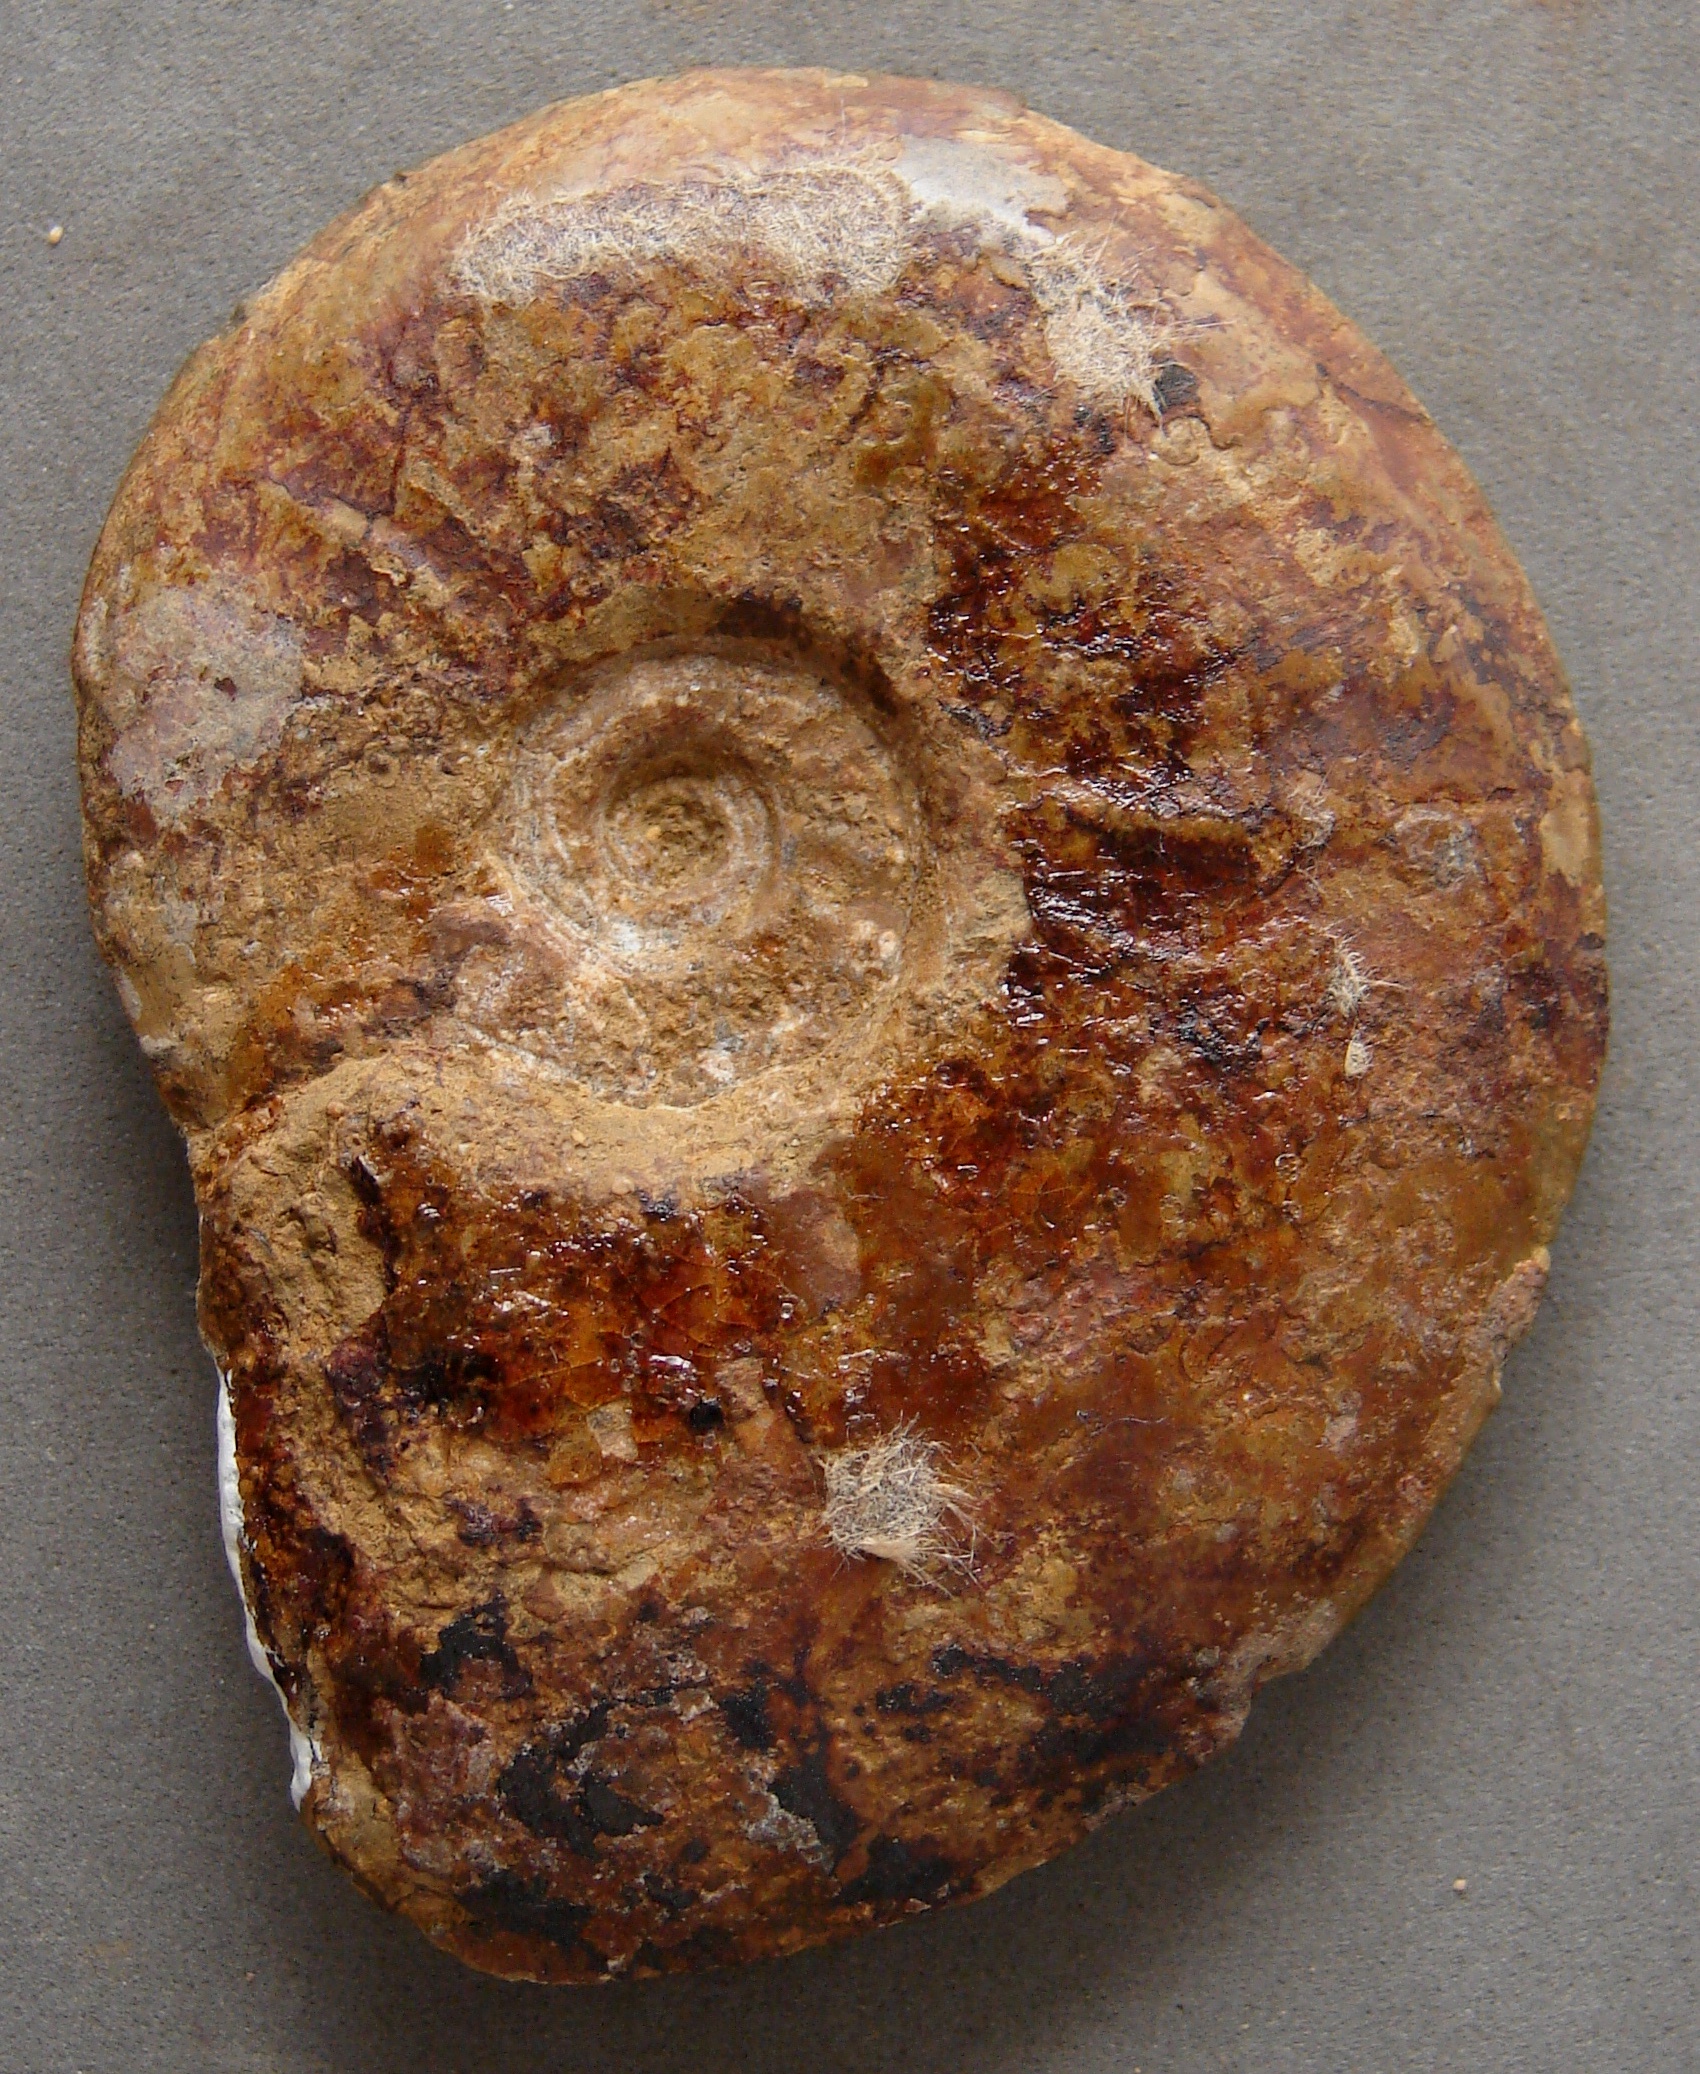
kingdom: Animalia
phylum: Mollusca
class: Cephalopoda
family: Hildoceratidae
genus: Pleydellia
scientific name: Pleydellia
